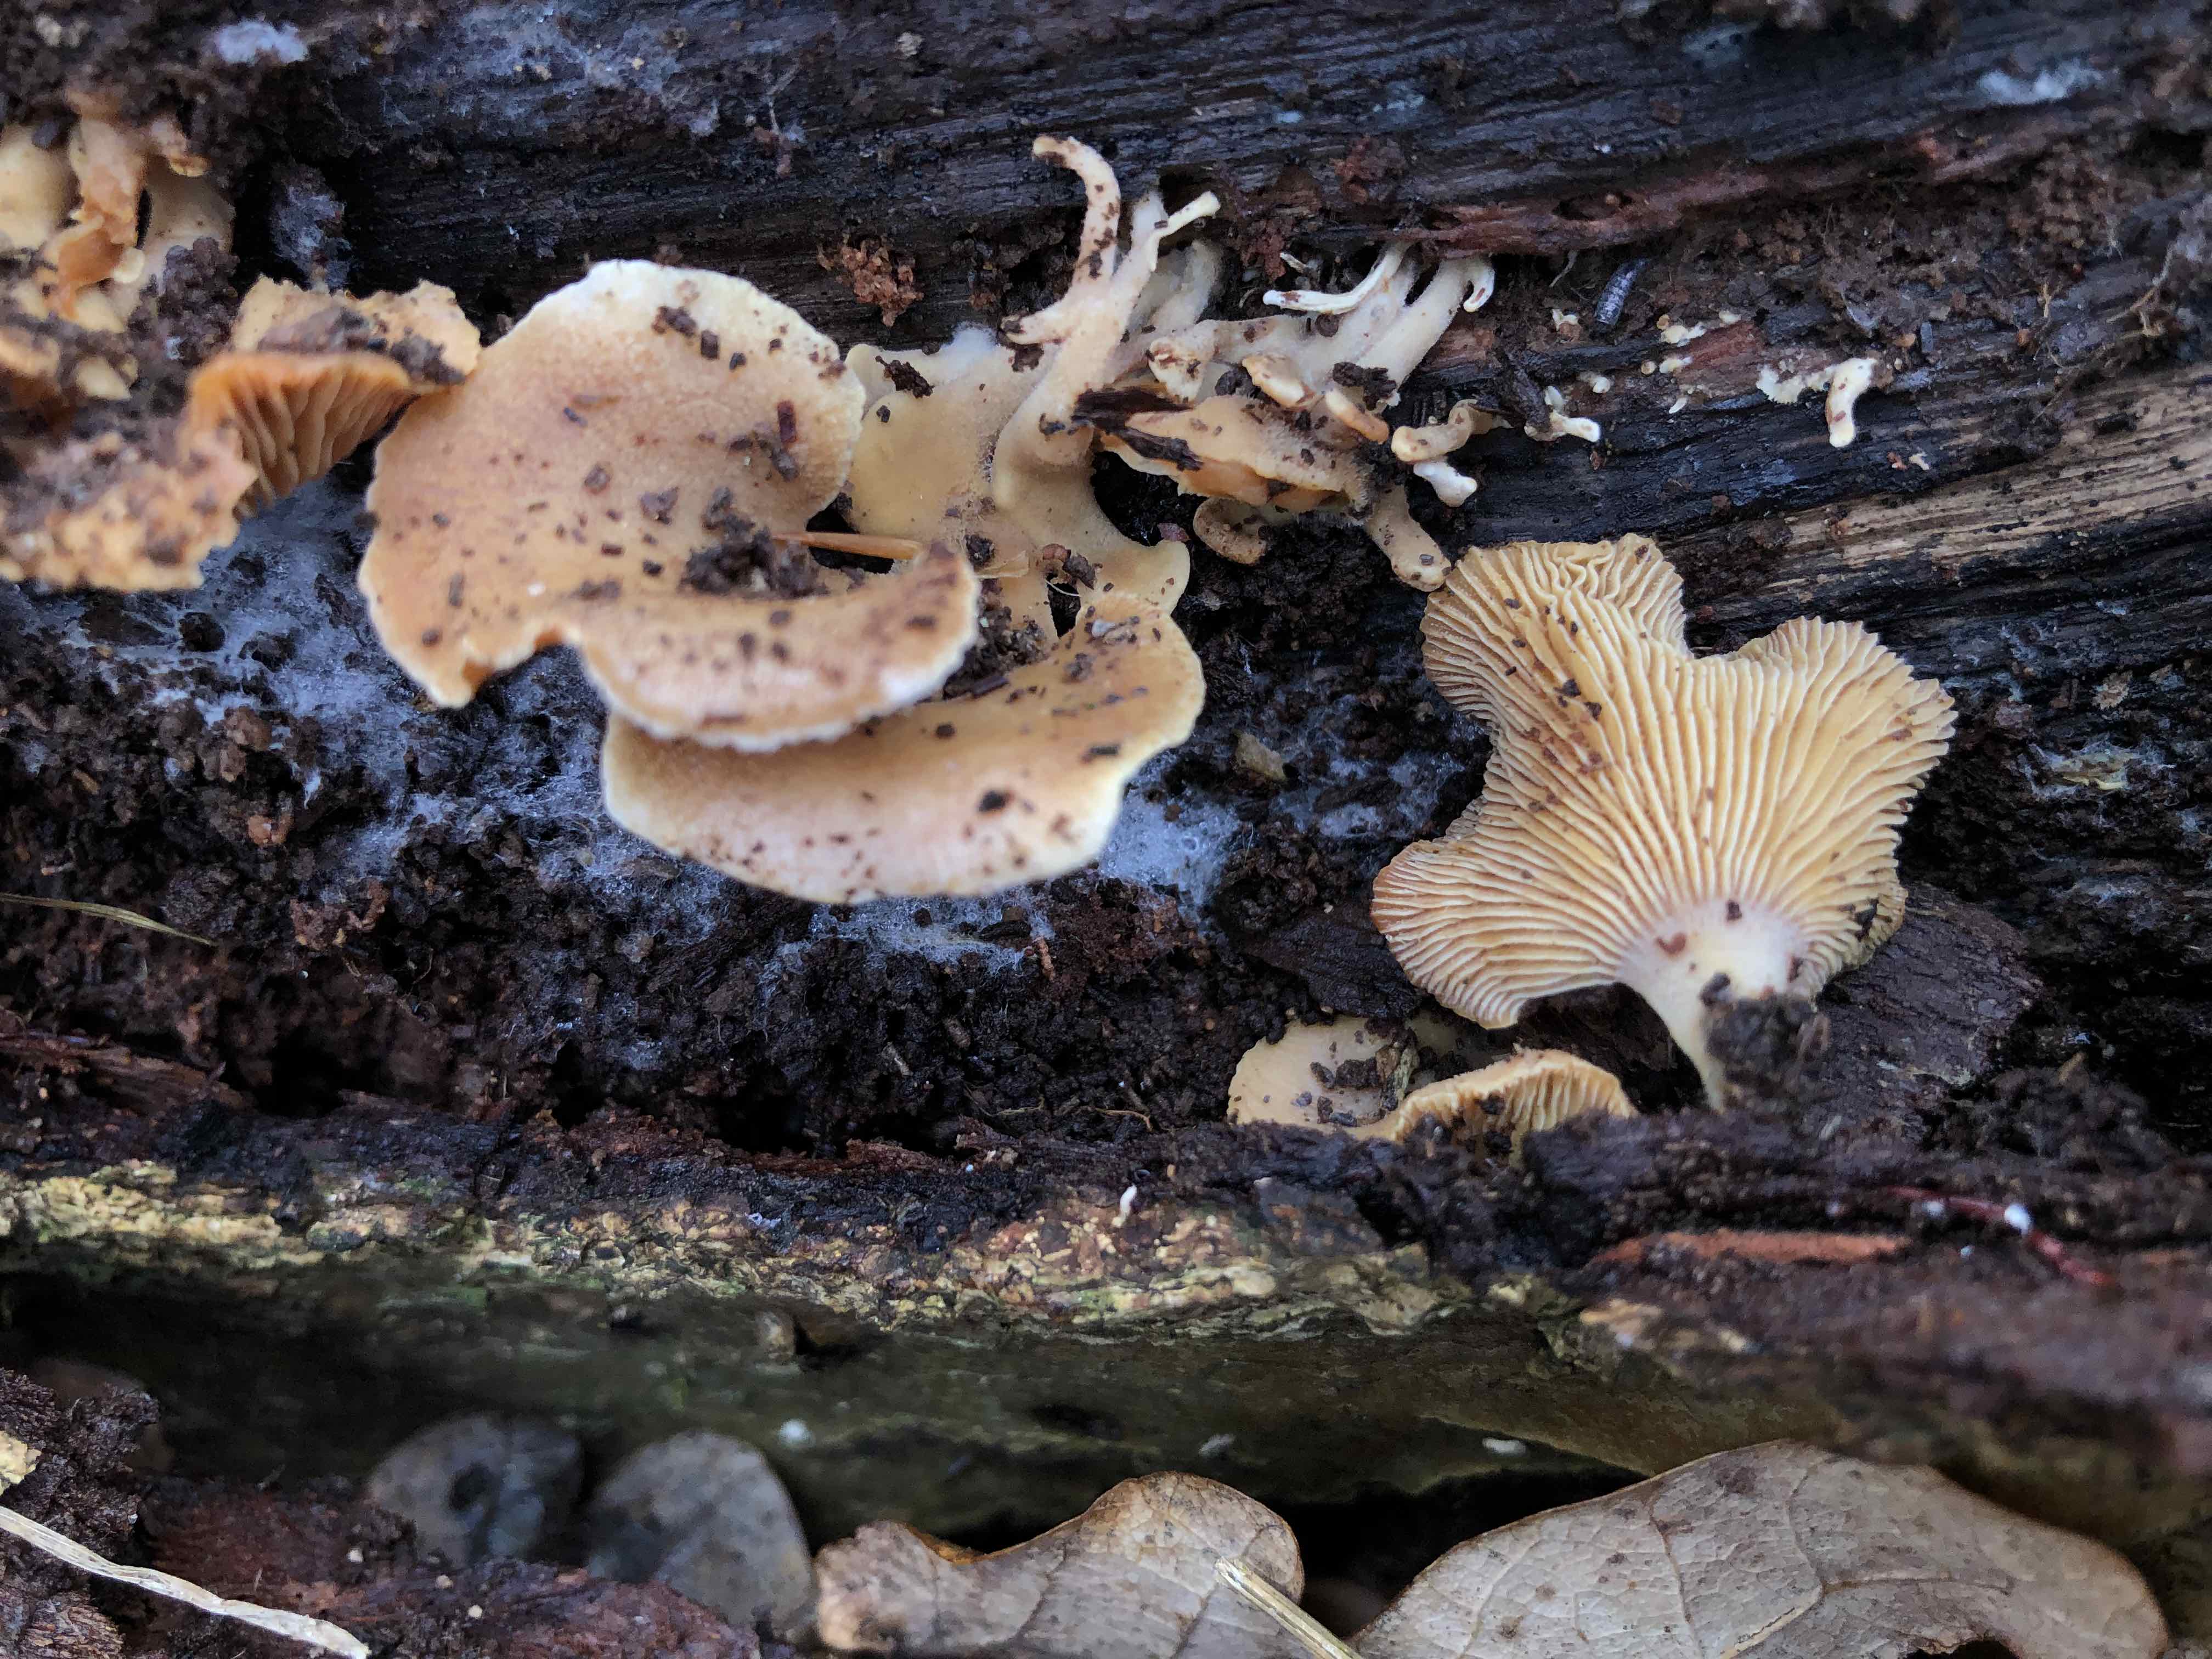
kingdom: Fungi
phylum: Basidiomycota
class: Agaricomycetes
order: Agaricales
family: Mycenaceae
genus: Panellus
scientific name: Panellus stipticus
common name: kliddet epaulethat
